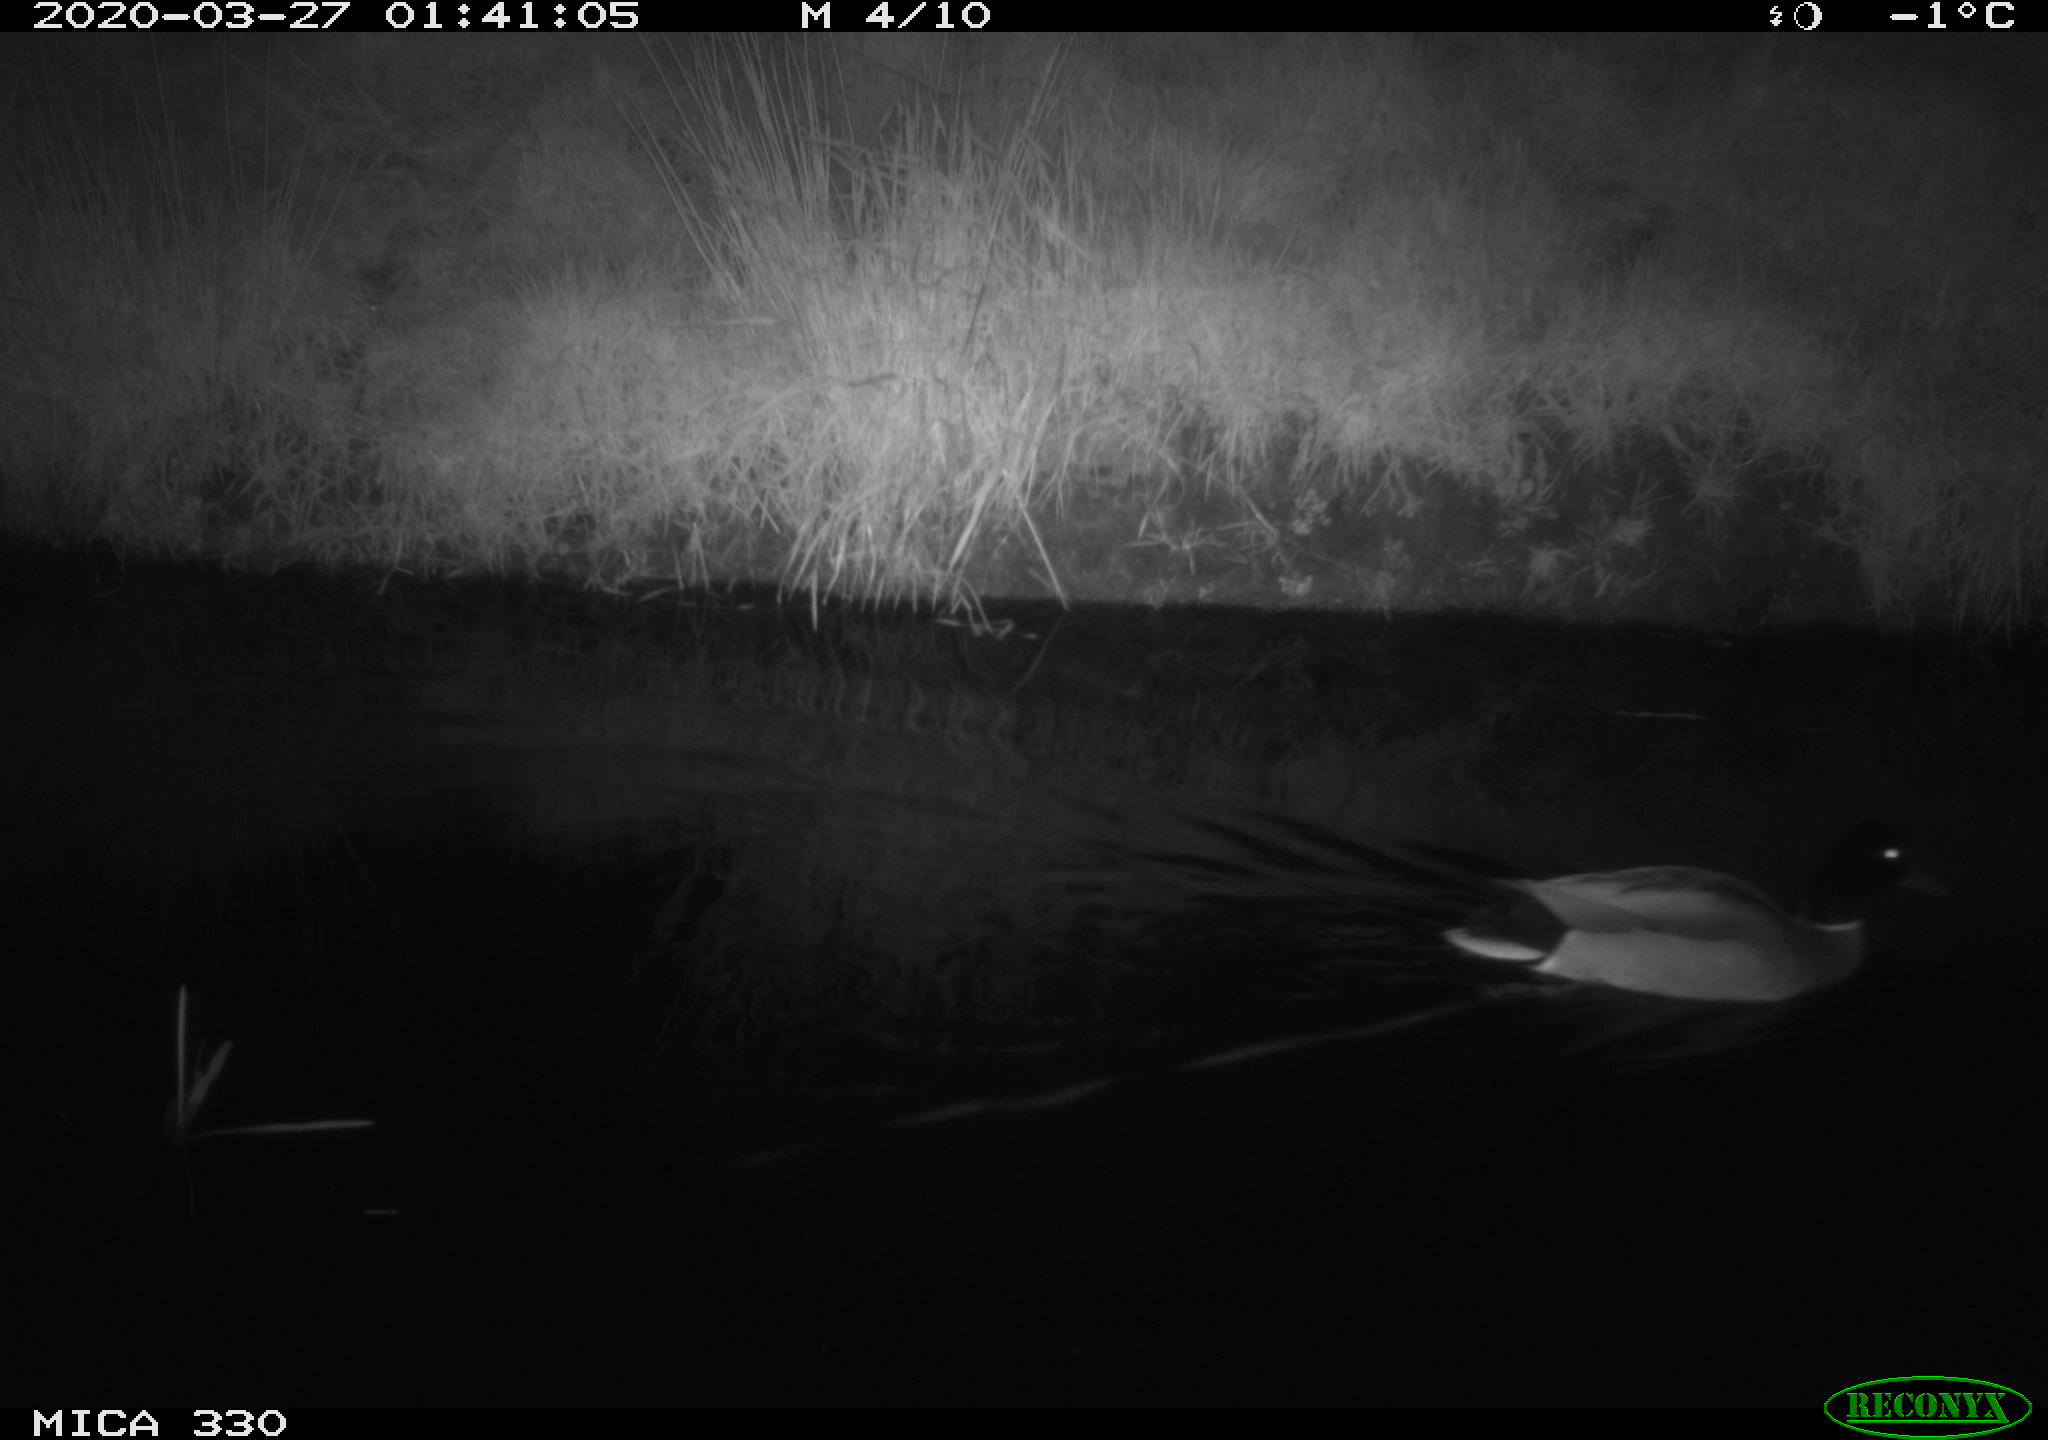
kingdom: Animalia
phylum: Chordata
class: Aves
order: Anseriformes
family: Anatidae
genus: Anas
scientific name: Anas platyrhynchos
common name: Mallard
